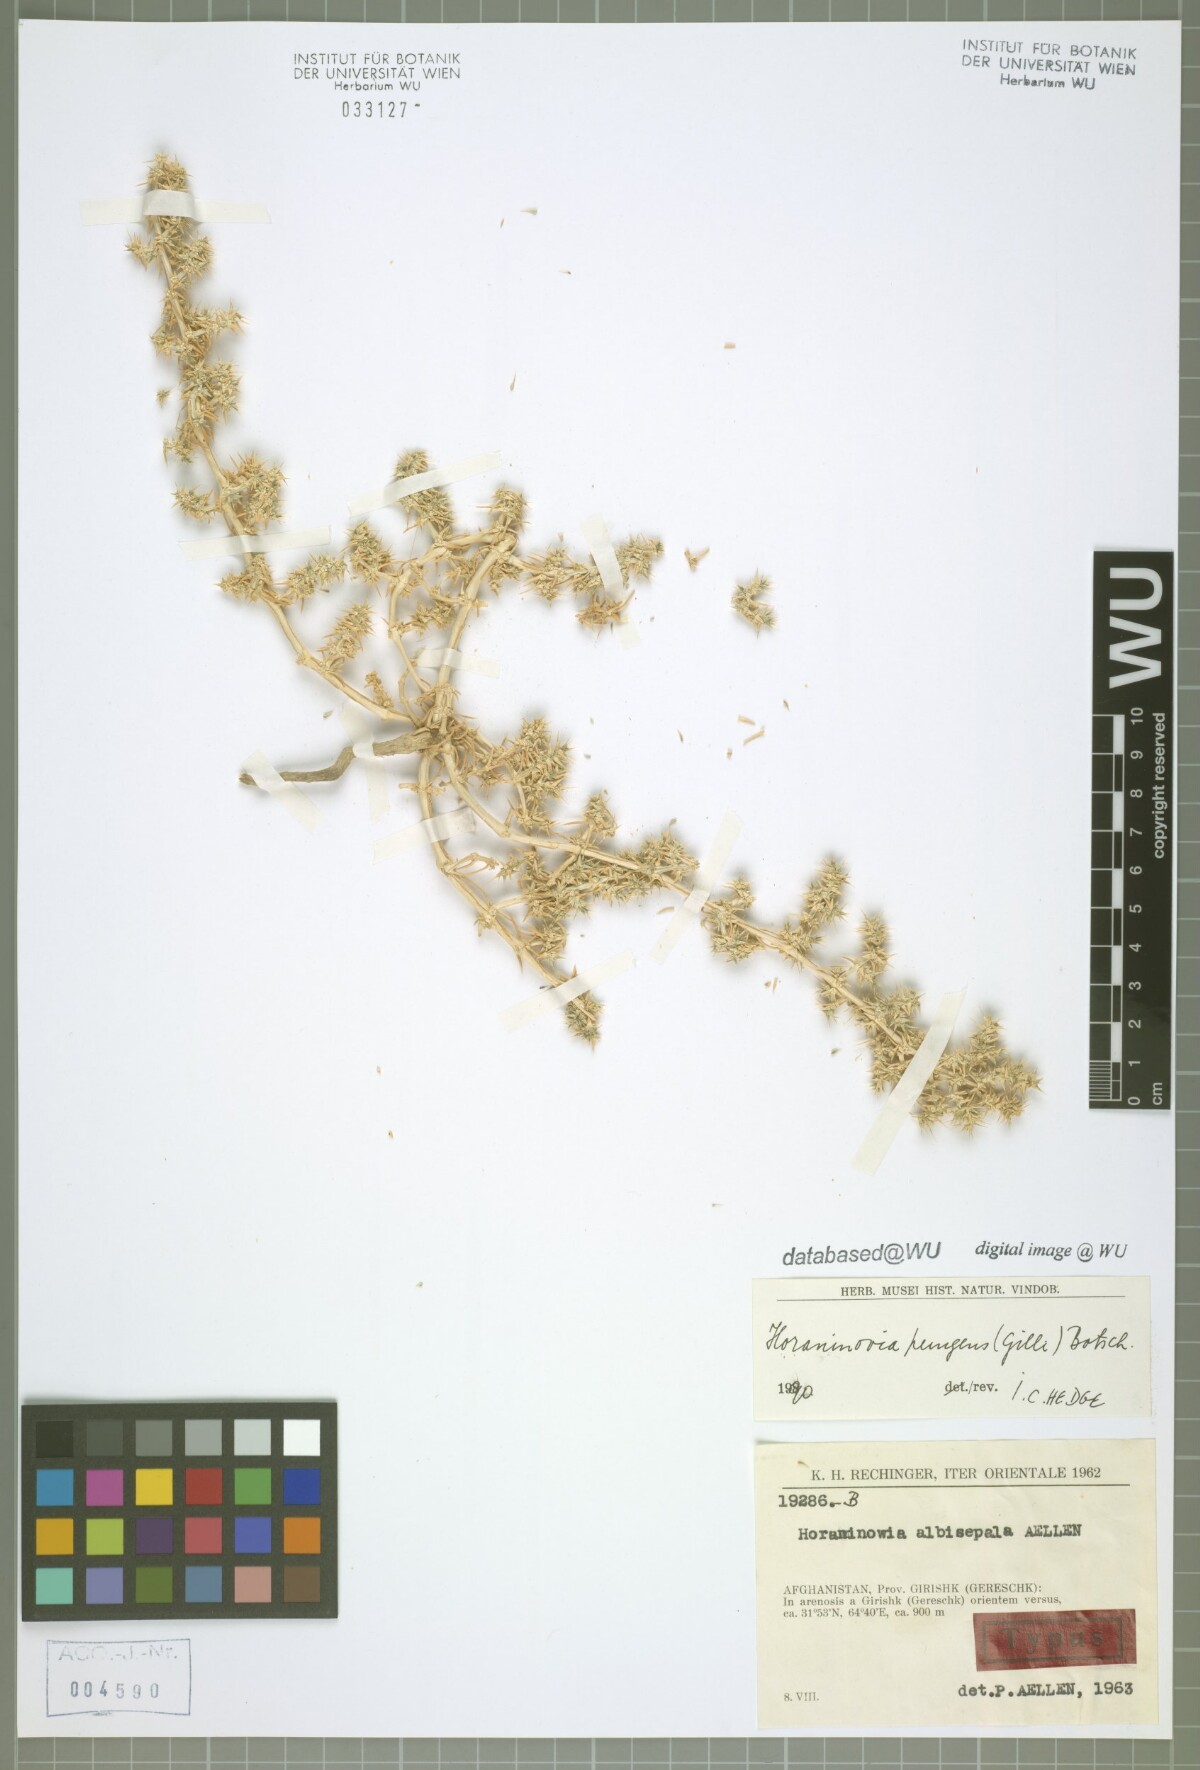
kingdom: Plantae
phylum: Tracheophyta
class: Magnoliopsida
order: Caryophyllales
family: Amaranthaceae
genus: Horaninovia
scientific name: Horaninovia pungens
